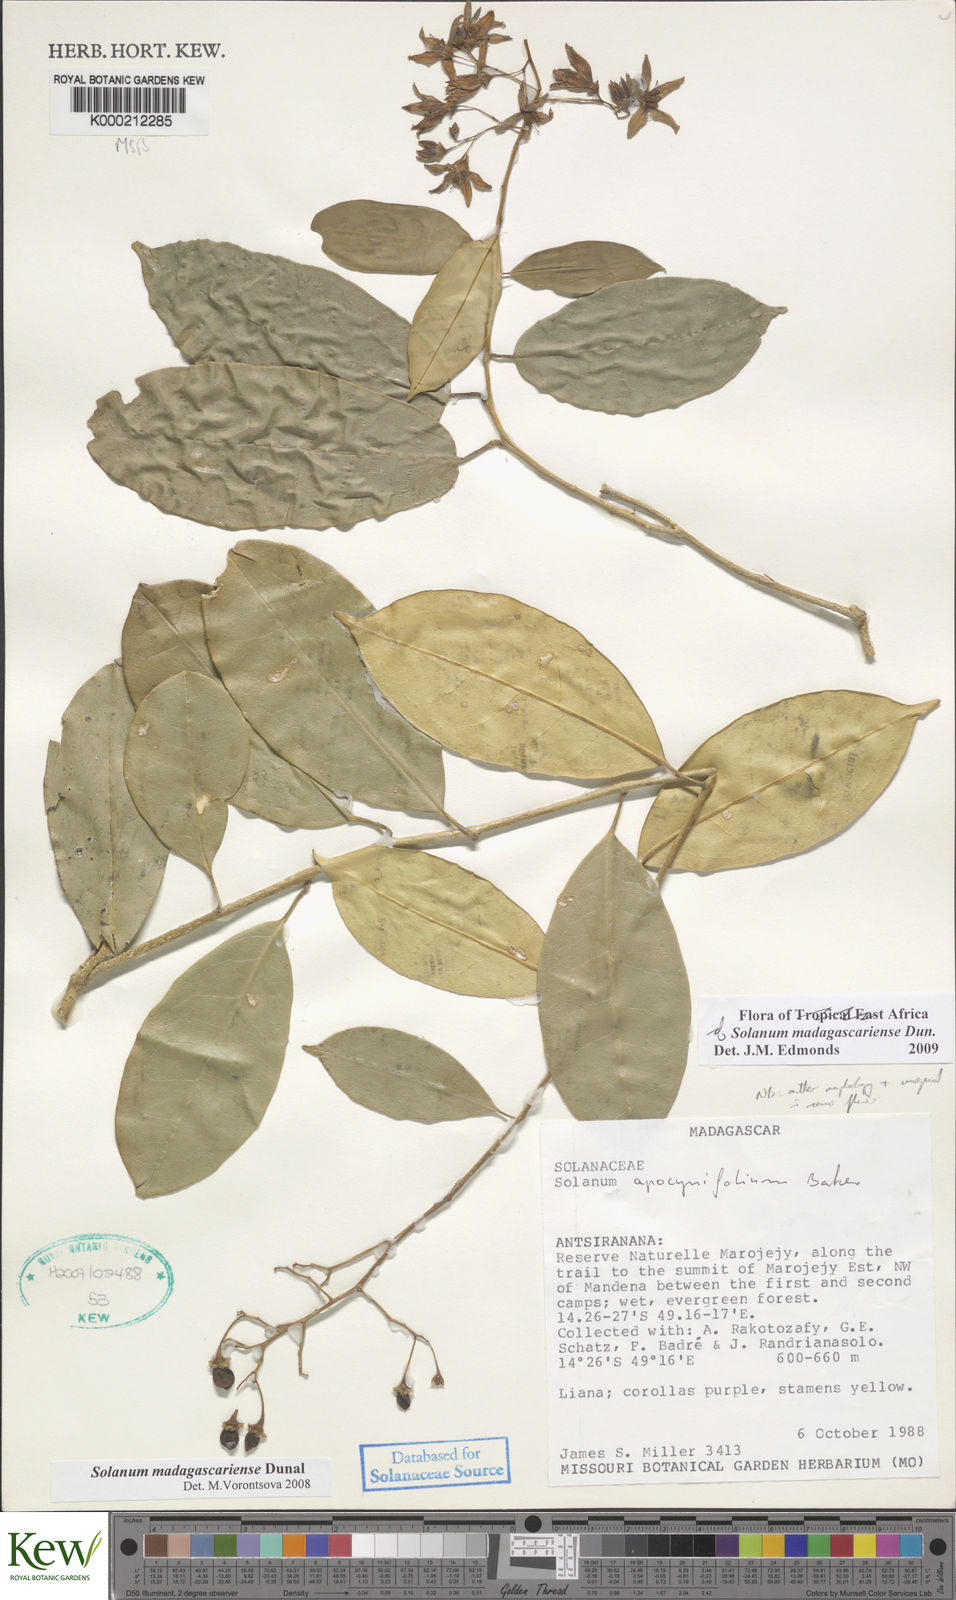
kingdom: Plantae
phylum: Tracheophyta
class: Magnoliopsida
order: Solanales
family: Solanaceae
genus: Solanum
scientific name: Solanum madagascariense
